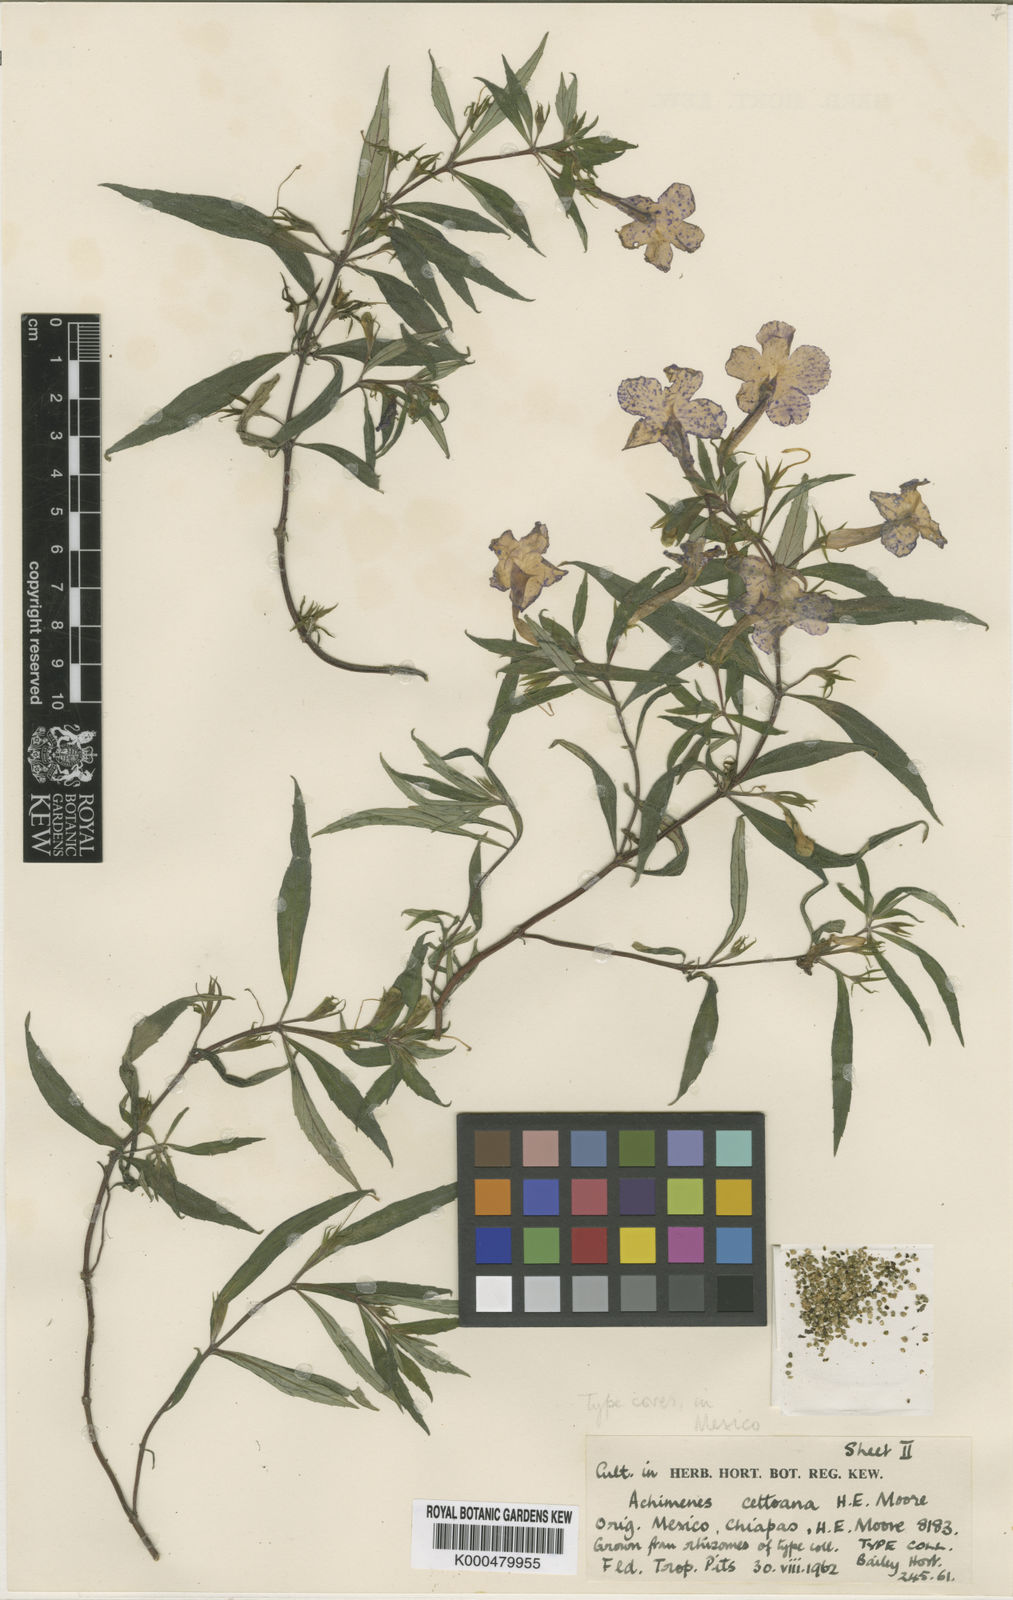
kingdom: Plantae
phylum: Tracheophyta
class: Magnoliopsida
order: Lamiales
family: Gesneriaceae
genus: Achimenes
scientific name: Achimenes cettoana
